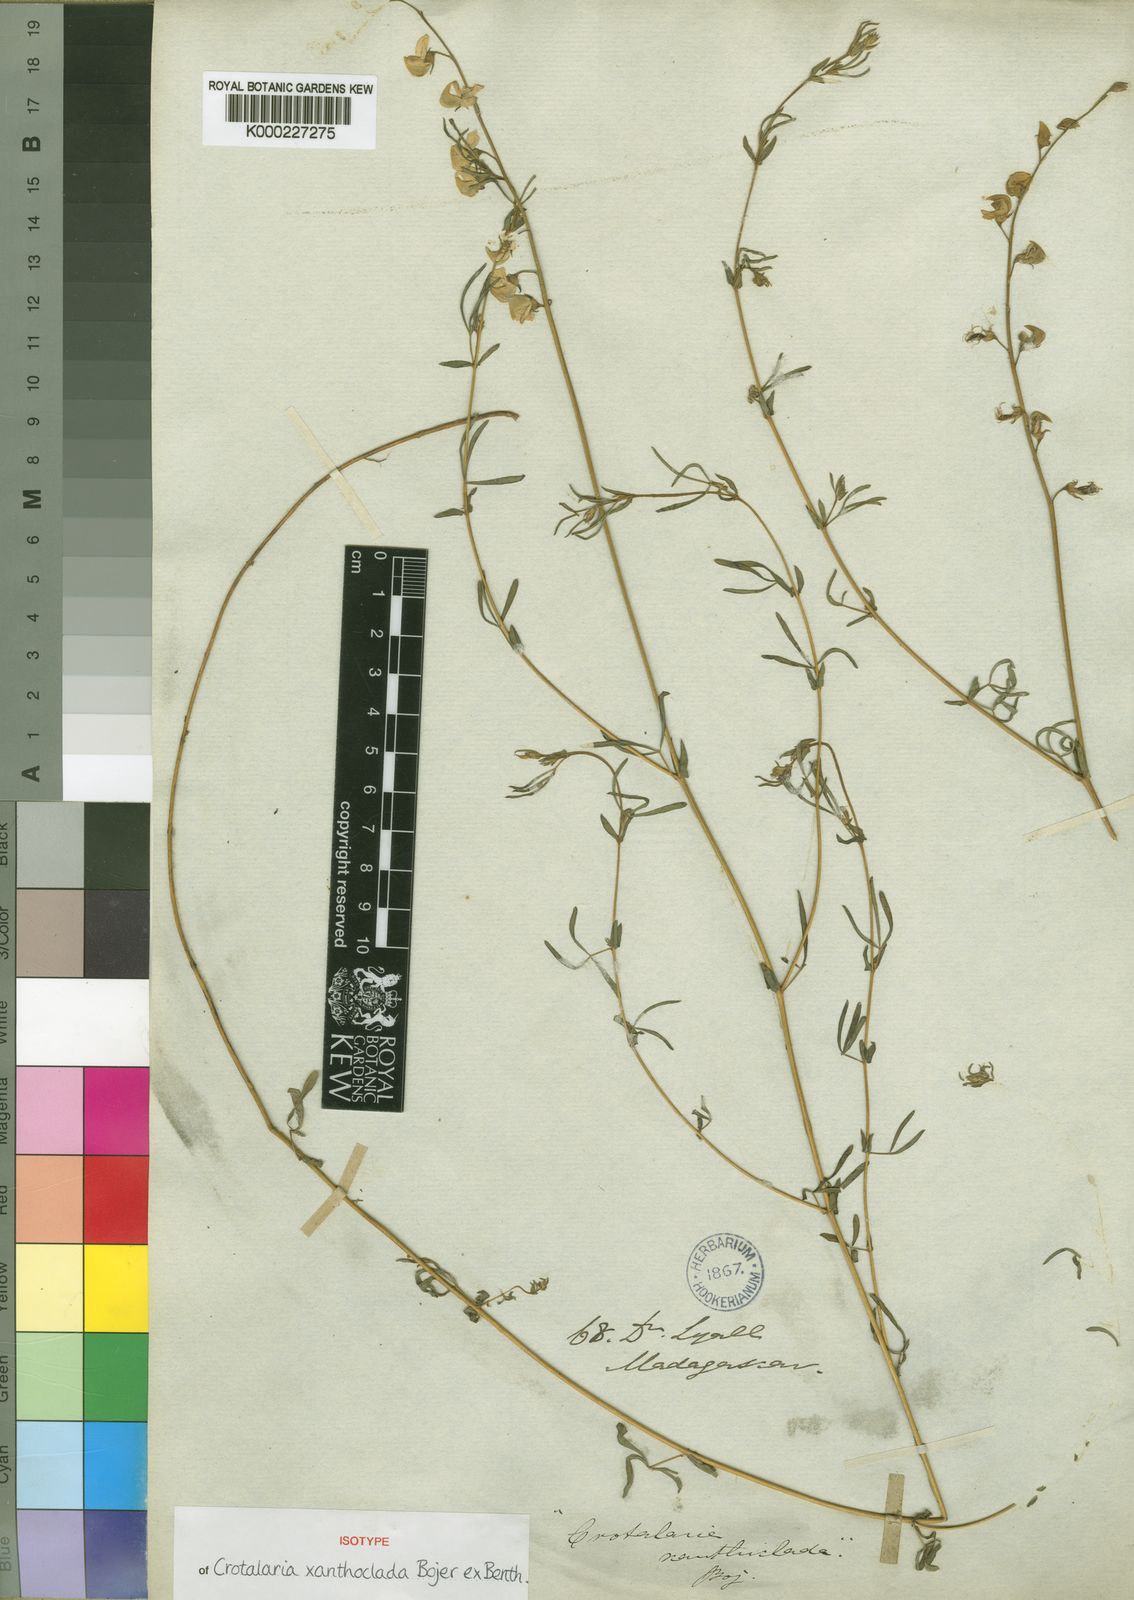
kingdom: Plantae
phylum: Tracheophyta
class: Magnoliopsida
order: Fabales
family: Fabaceae
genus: Crotalaria
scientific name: Crotalaria xanthoclada
